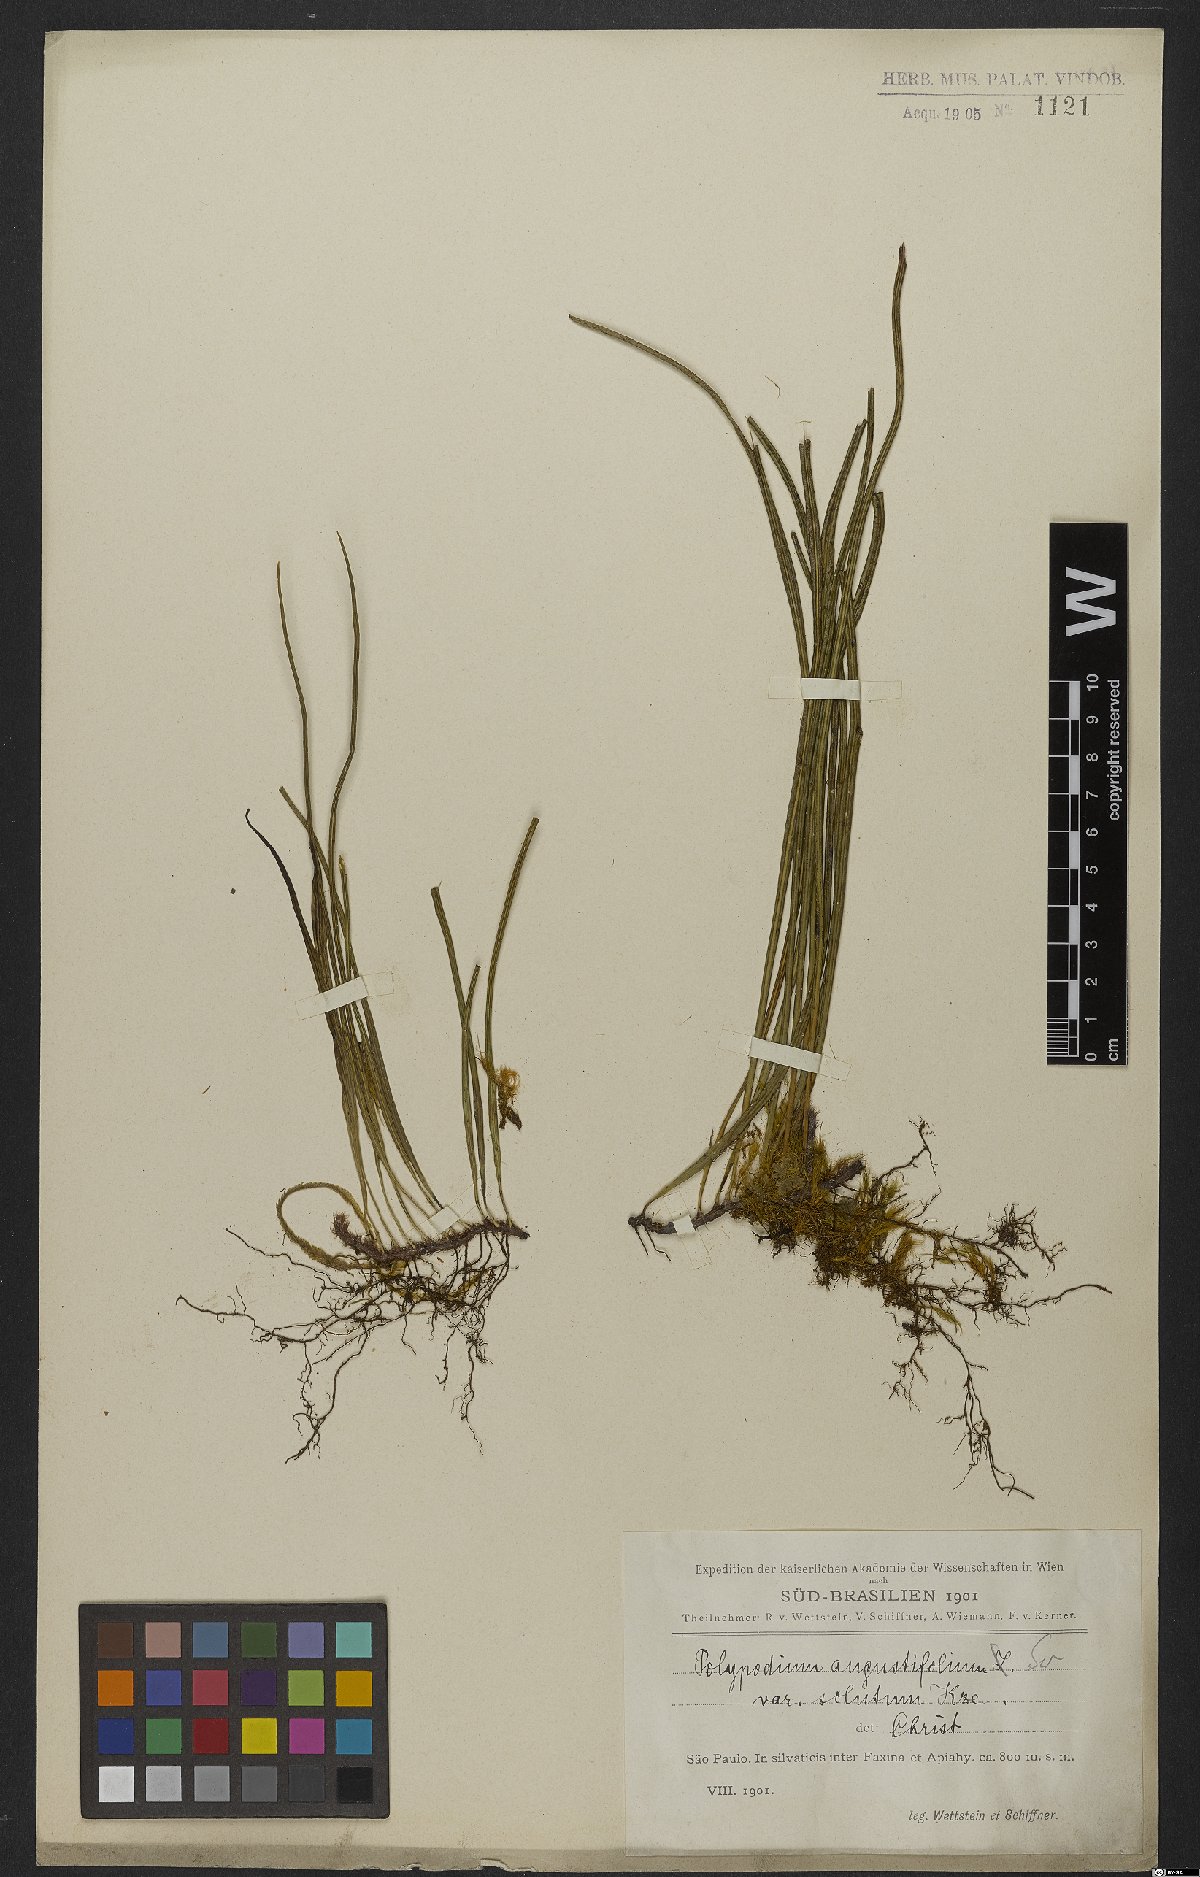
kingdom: Plantae
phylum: Tracheophyta
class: Polypodiopsida
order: Polypodiales
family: Polypodiaceae
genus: Campyloneurum
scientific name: Campyloneurum solutum
